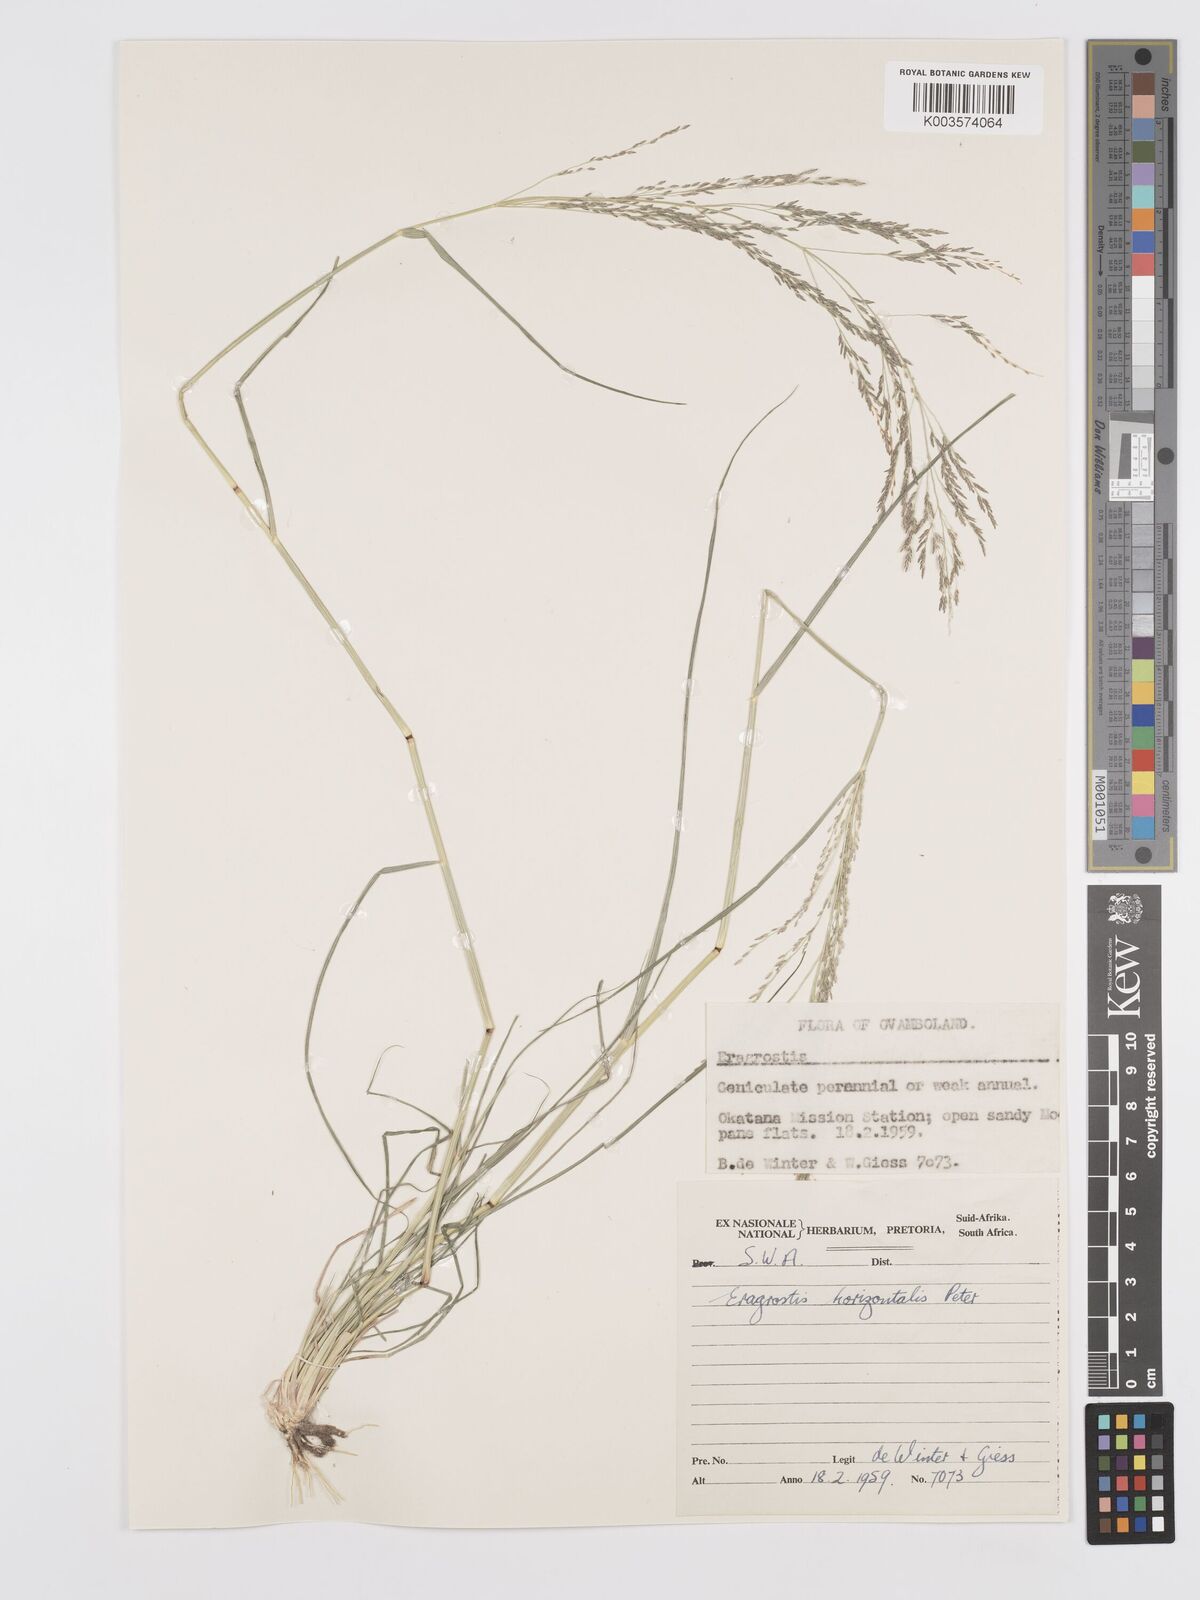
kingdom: Plantae
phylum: Tracheophyta
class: Liliopsida
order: Poales
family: Poaceae
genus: Eragrostis
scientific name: Eragrostis cylindriflora
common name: Cylinderflower lovegrass
